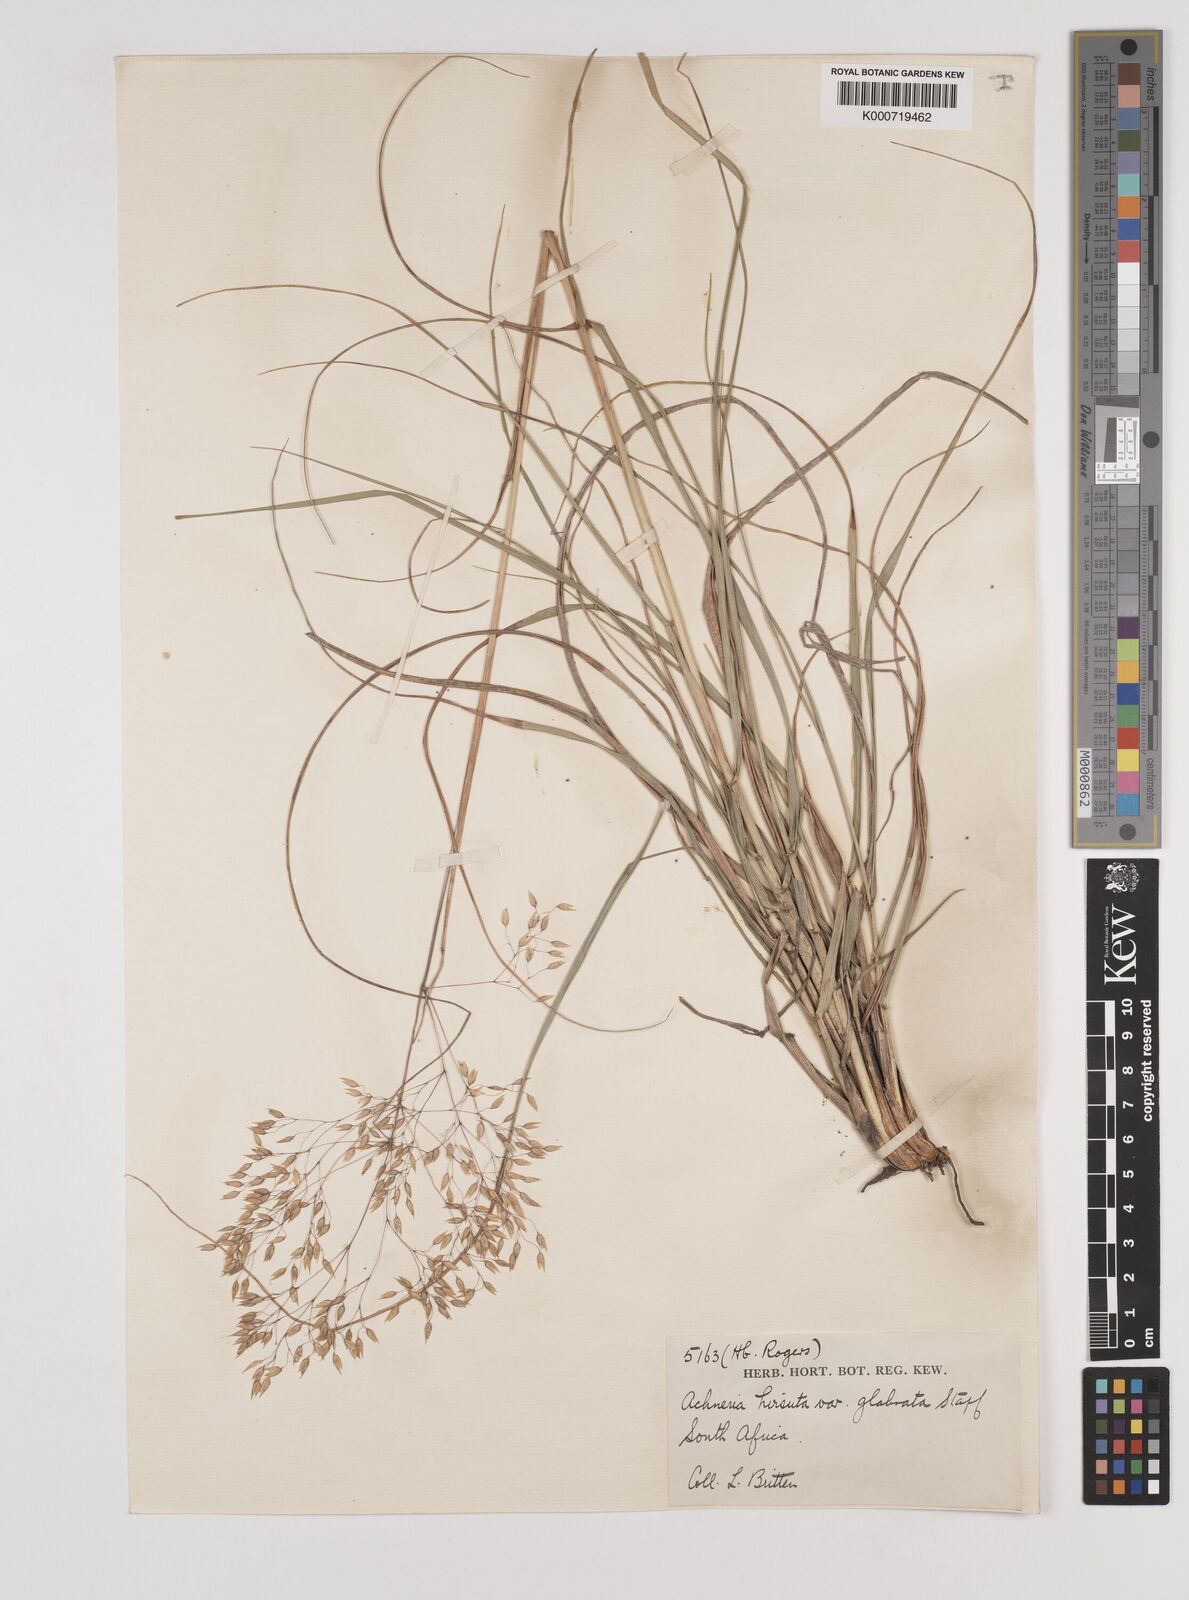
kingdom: Plantae
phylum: Tracheophyta
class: Liliopsida
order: Poales
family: Poaceae
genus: Pentameris
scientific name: Pentameris aurea
